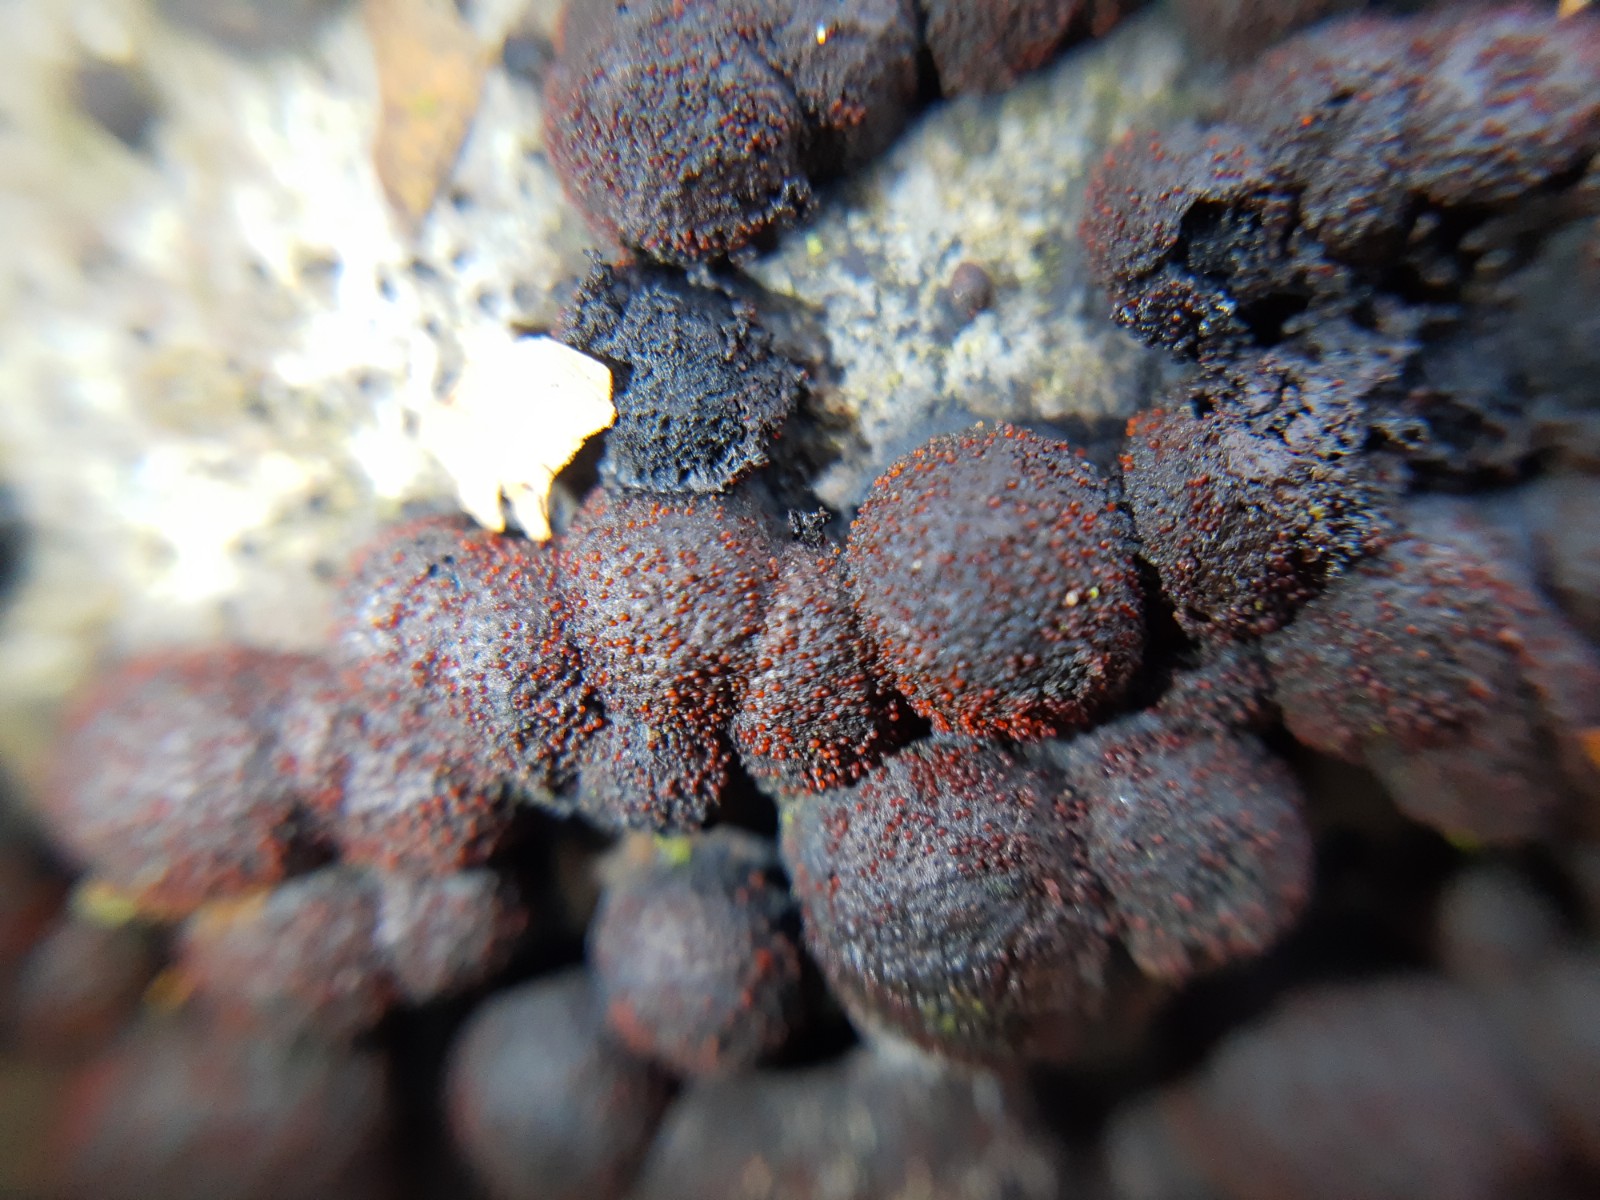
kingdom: Fungi
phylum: Ascomycota
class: Sordariomycetes
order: Hypocreales
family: Nectriaceae
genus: Cosmospora
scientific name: Cosmospora arxii
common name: kuljordbær-cinnobersvamp
